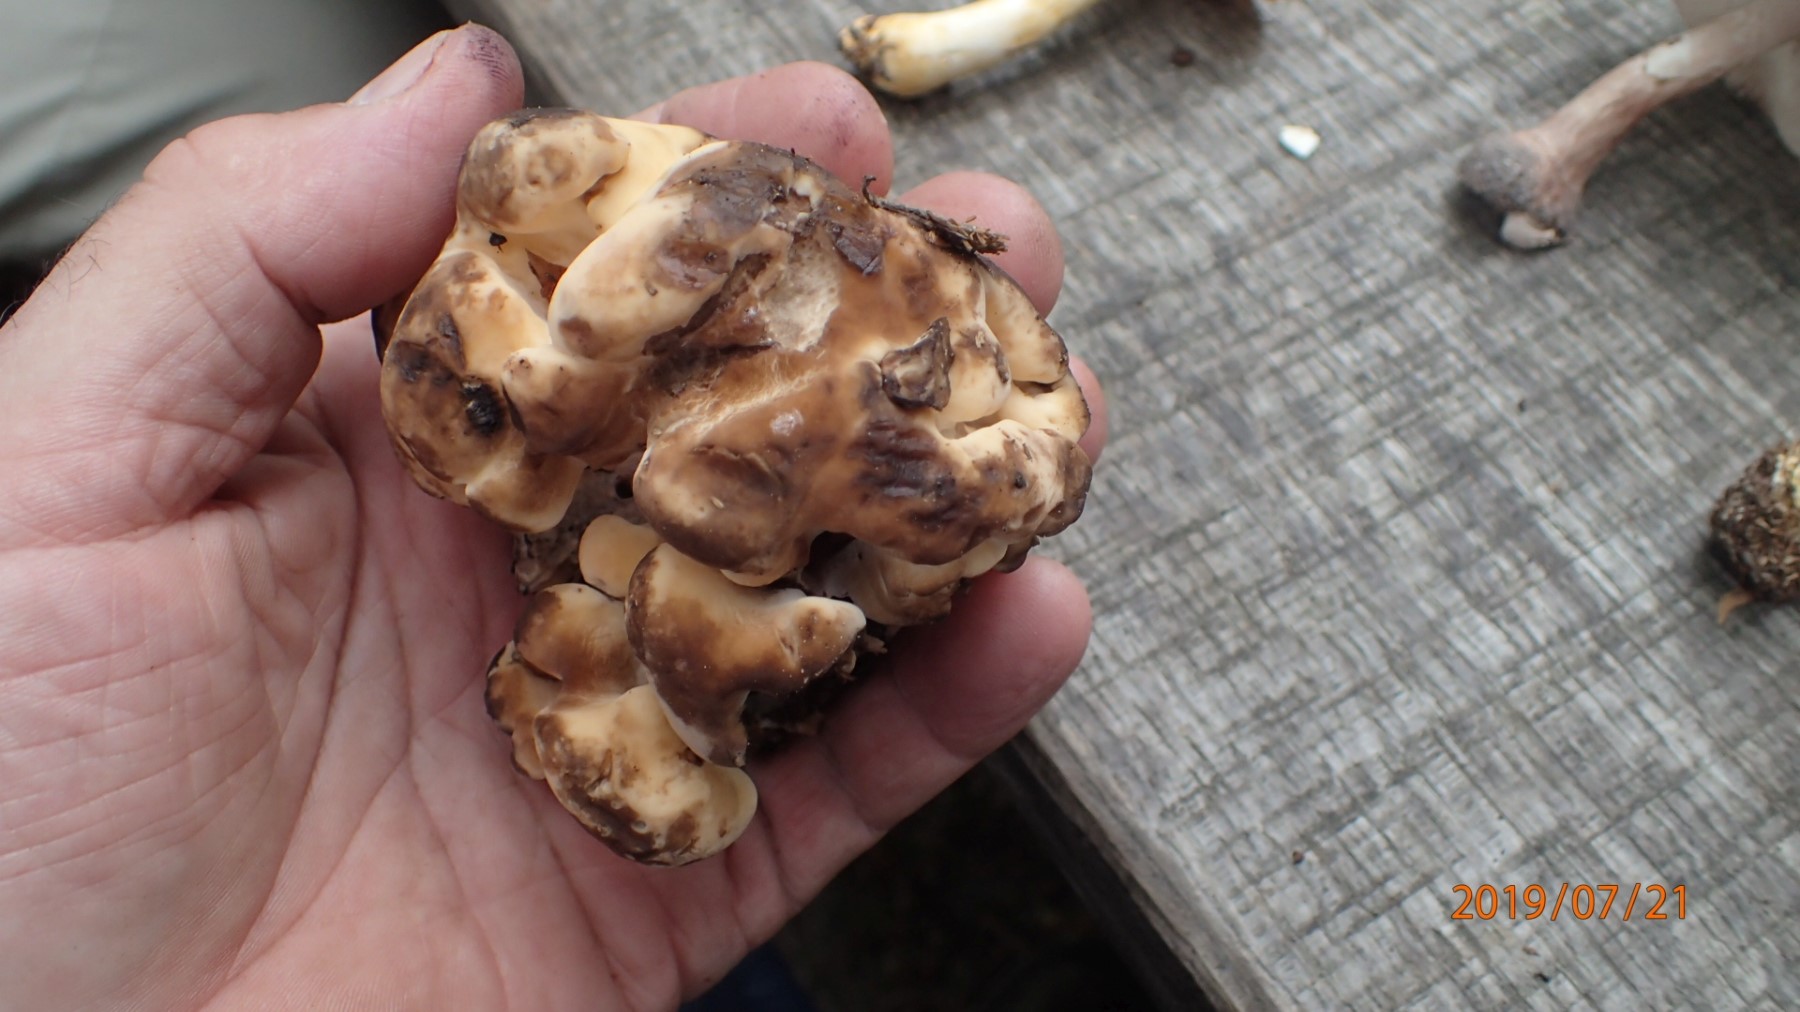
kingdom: Fungi
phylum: Basidiomycota
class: Agaricomycetes
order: Polyporales
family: Meripilaceae
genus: Meripilus
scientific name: Meripilus giganteus
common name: kæmpeporesvamp
